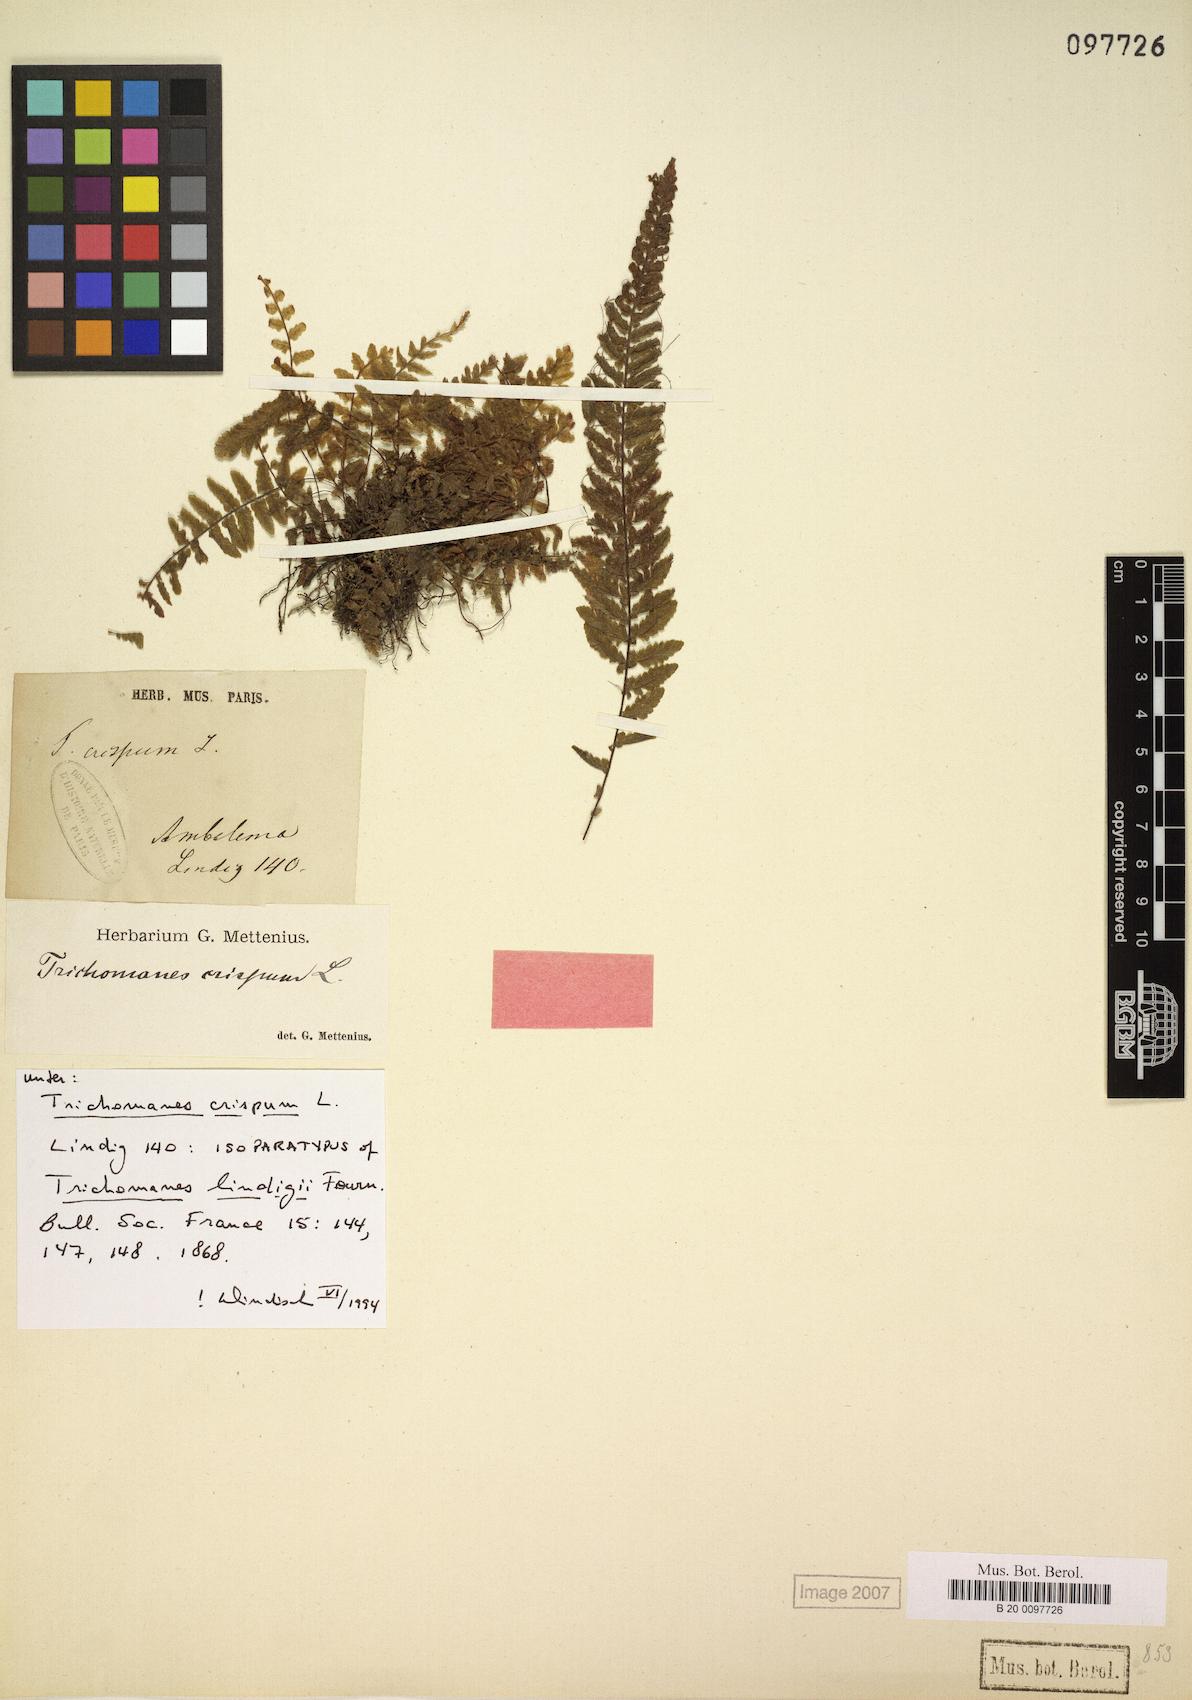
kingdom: Plantae
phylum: Tracheophyta
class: Polypodiopsida
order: Hymenophyllales
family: Hymenophyllaceae
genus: Trichomanes
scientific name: Trichomanes crispum
